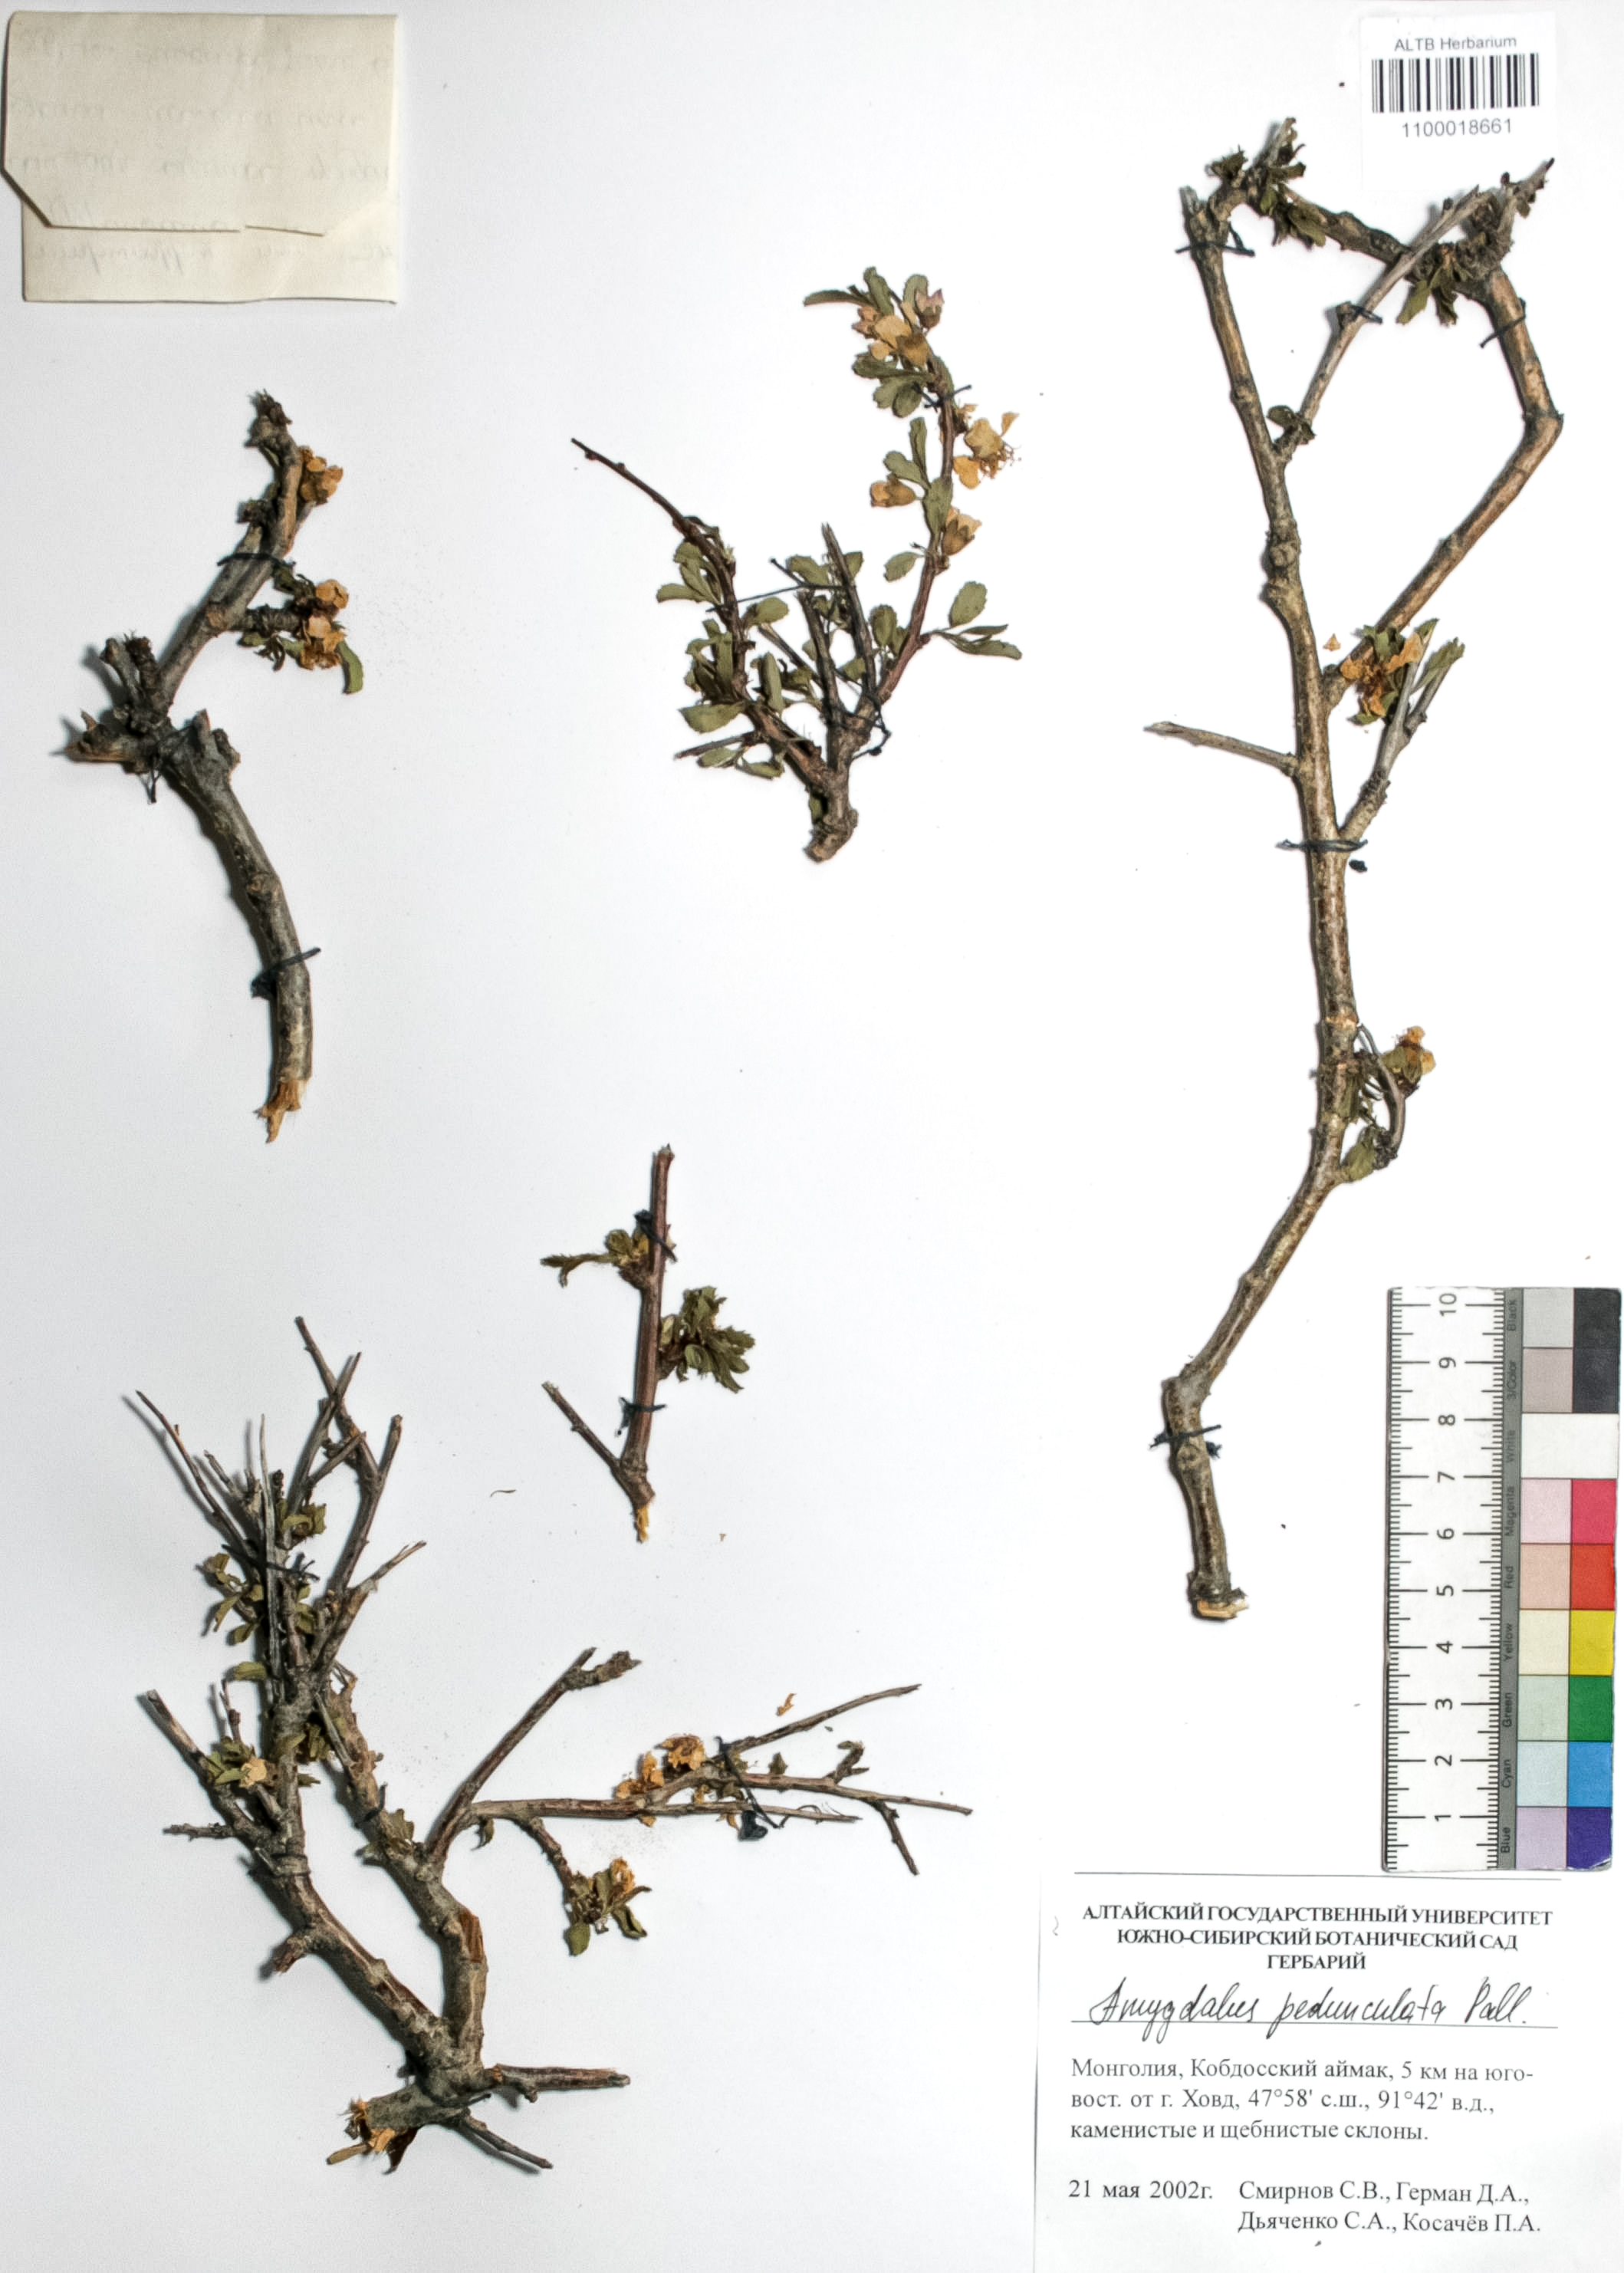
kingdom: Plantae
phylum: Tracheophyta
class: Magnoliopsida
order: Rosales
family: Rosaceae
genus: Prunus
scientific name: Prunus pedunculata
